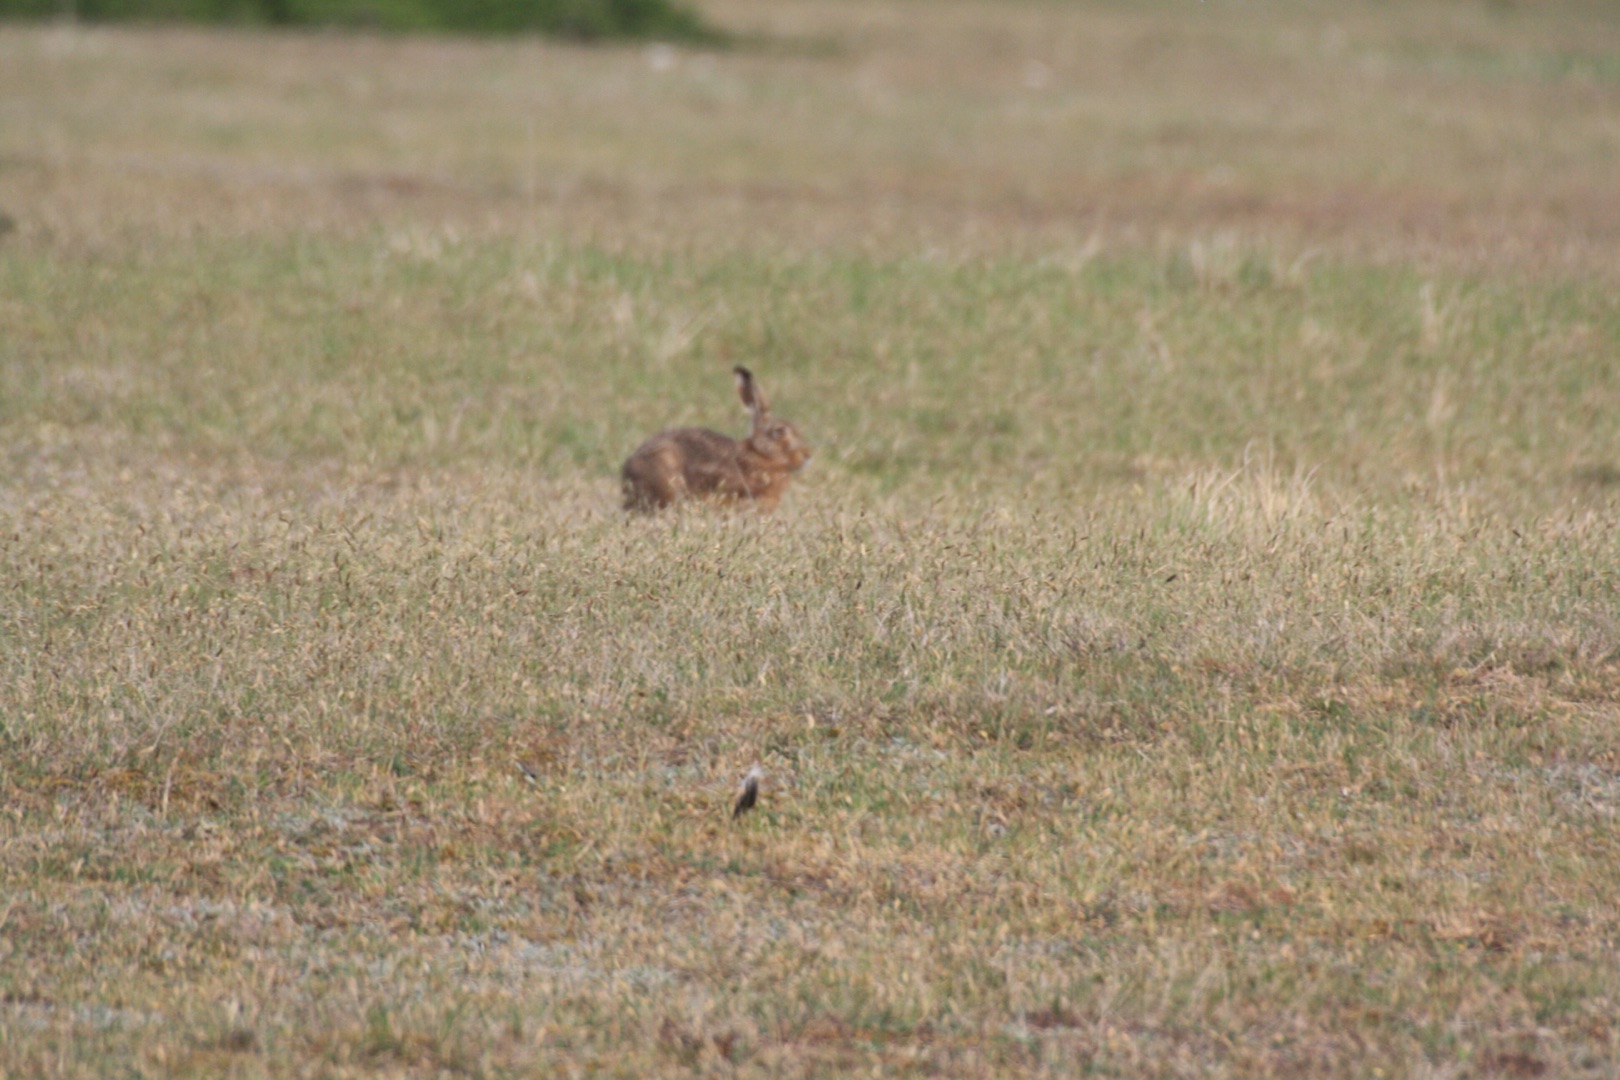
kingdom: Animalia
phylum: Chordata
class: Mammalia
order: Lagomorpha
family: Leporidae
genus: Lepus
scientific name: Lepus europaeus
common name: Hare
